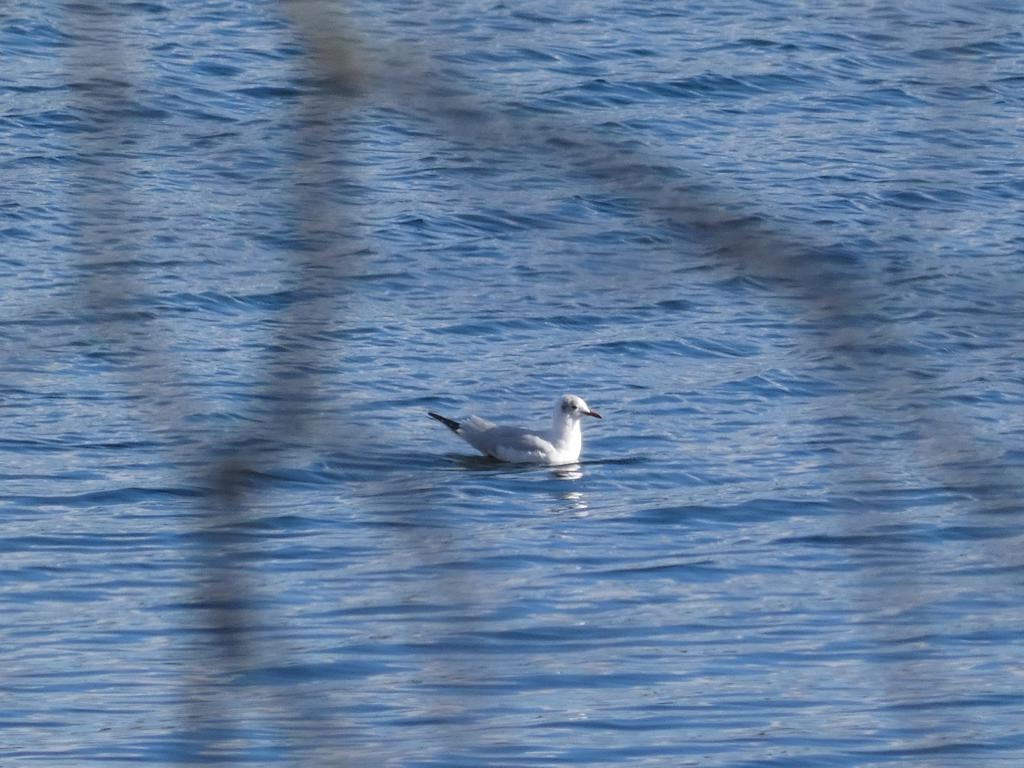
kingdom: Animalia
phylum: Chordata
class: Aves
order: Charadriiformes
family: Laridae
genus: Chroicocephalus
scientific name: Chroicocephalus ridibundus
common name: Hættemåge
